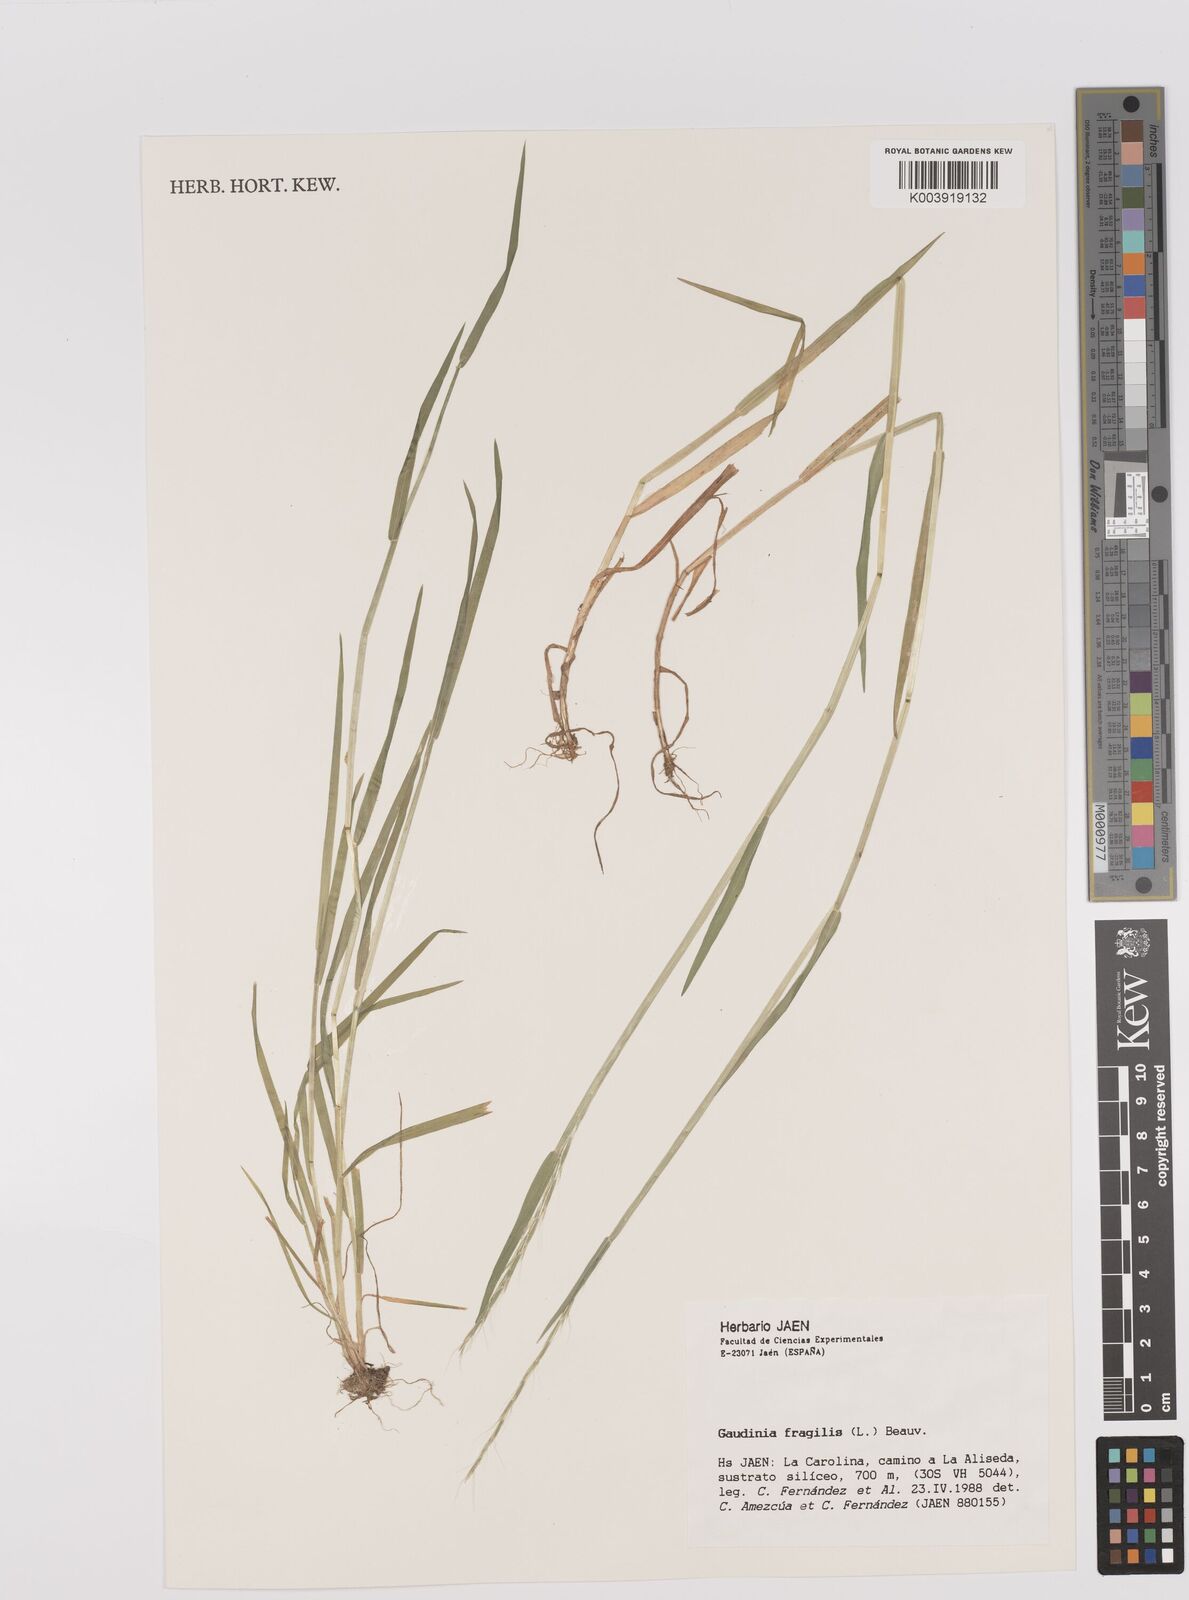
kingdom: Plantae
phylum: Tracheophyta
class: Liliopsida
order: Poales
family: Poaceae
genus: Gaudinia
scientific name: Gaudinia fragilis
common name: French oat-grass
